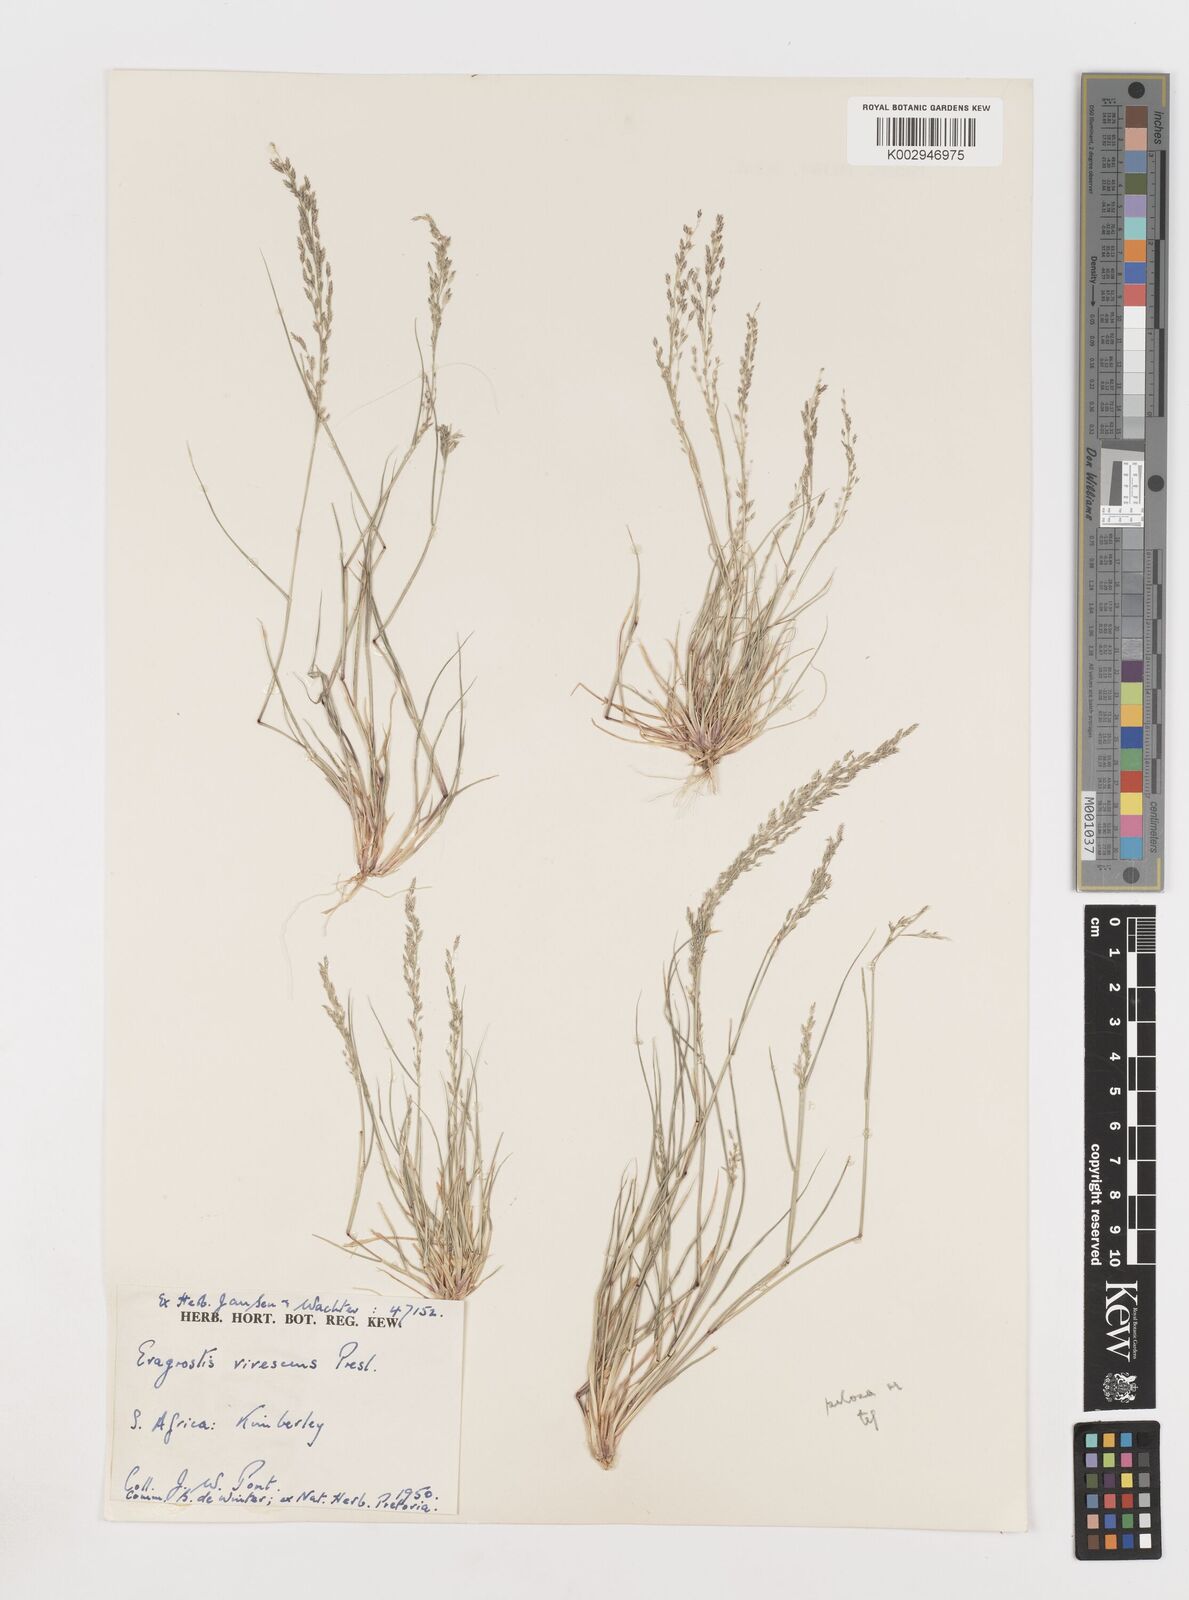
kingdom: Plantae
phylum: Tracheophyta
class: Liliopsida
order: Poales
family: Poaceae
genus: Eragrostis
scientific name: Eragrostis
